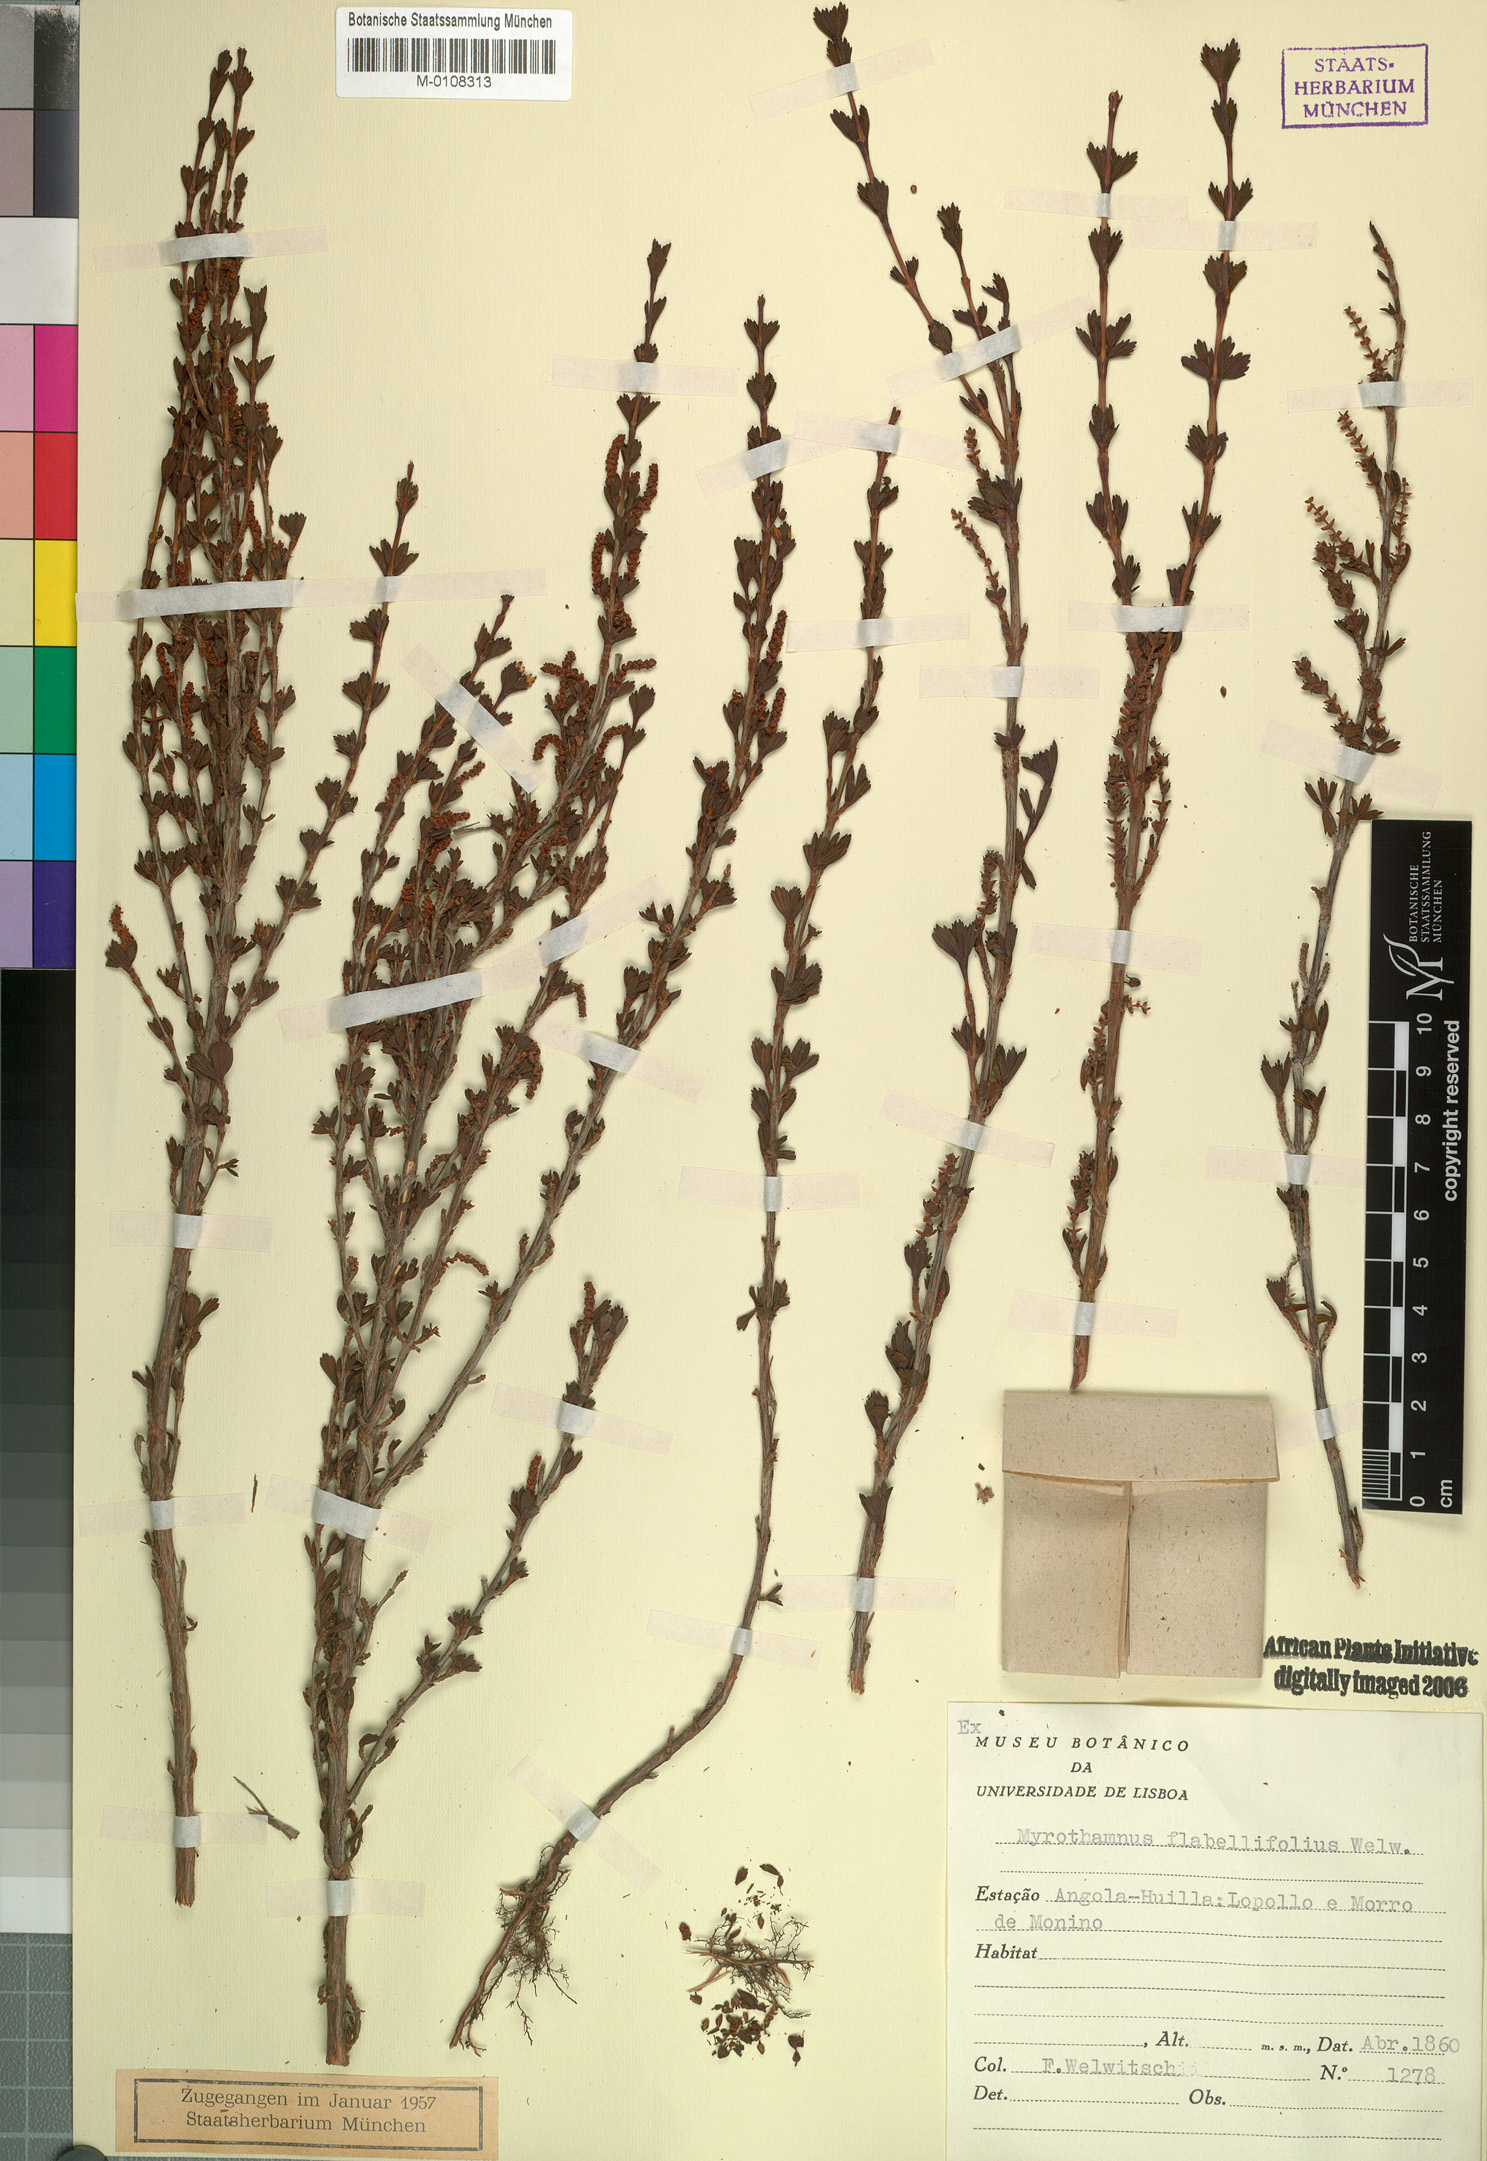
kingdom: Plantae
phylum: Tracheophyta
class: Magnoliopsida
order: Gunnerales
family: Myrothamnaceae
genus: Myrothamnus
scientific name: Myrothamnus flabellifolius
